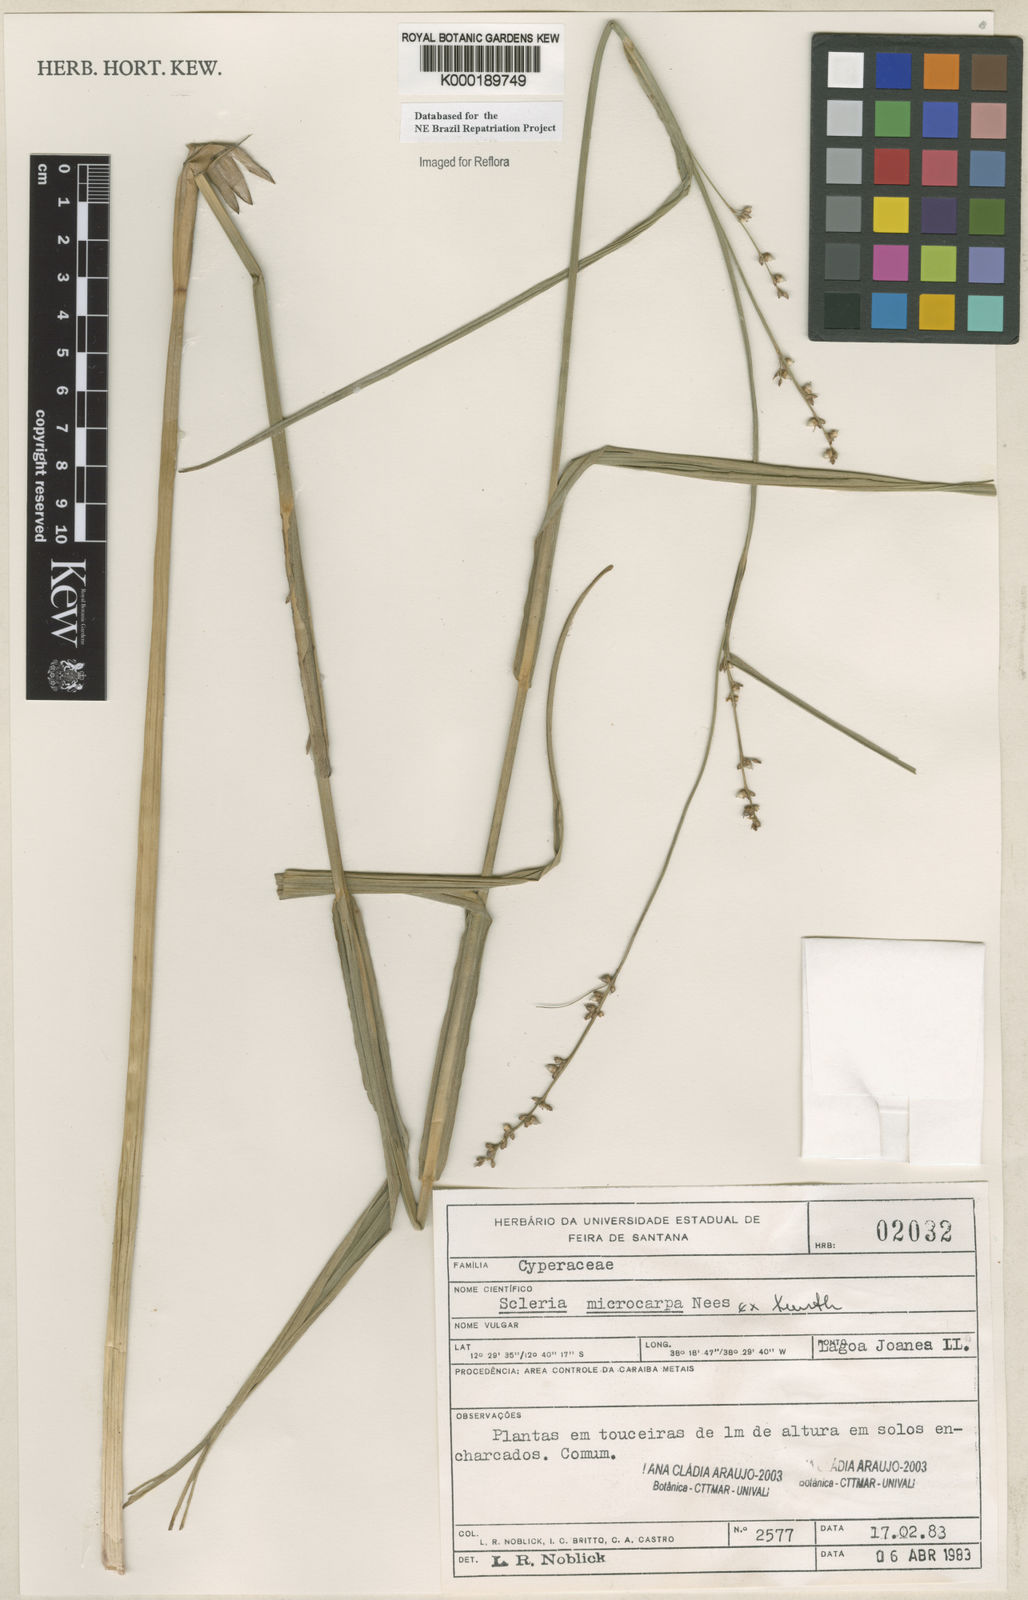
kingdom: Plantae
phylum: Tracheophyta
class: Liliopsida
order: Poales
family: Cyperaceae
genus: Scleria
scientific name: Scleria microcarpa
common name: Tropical nutrush
